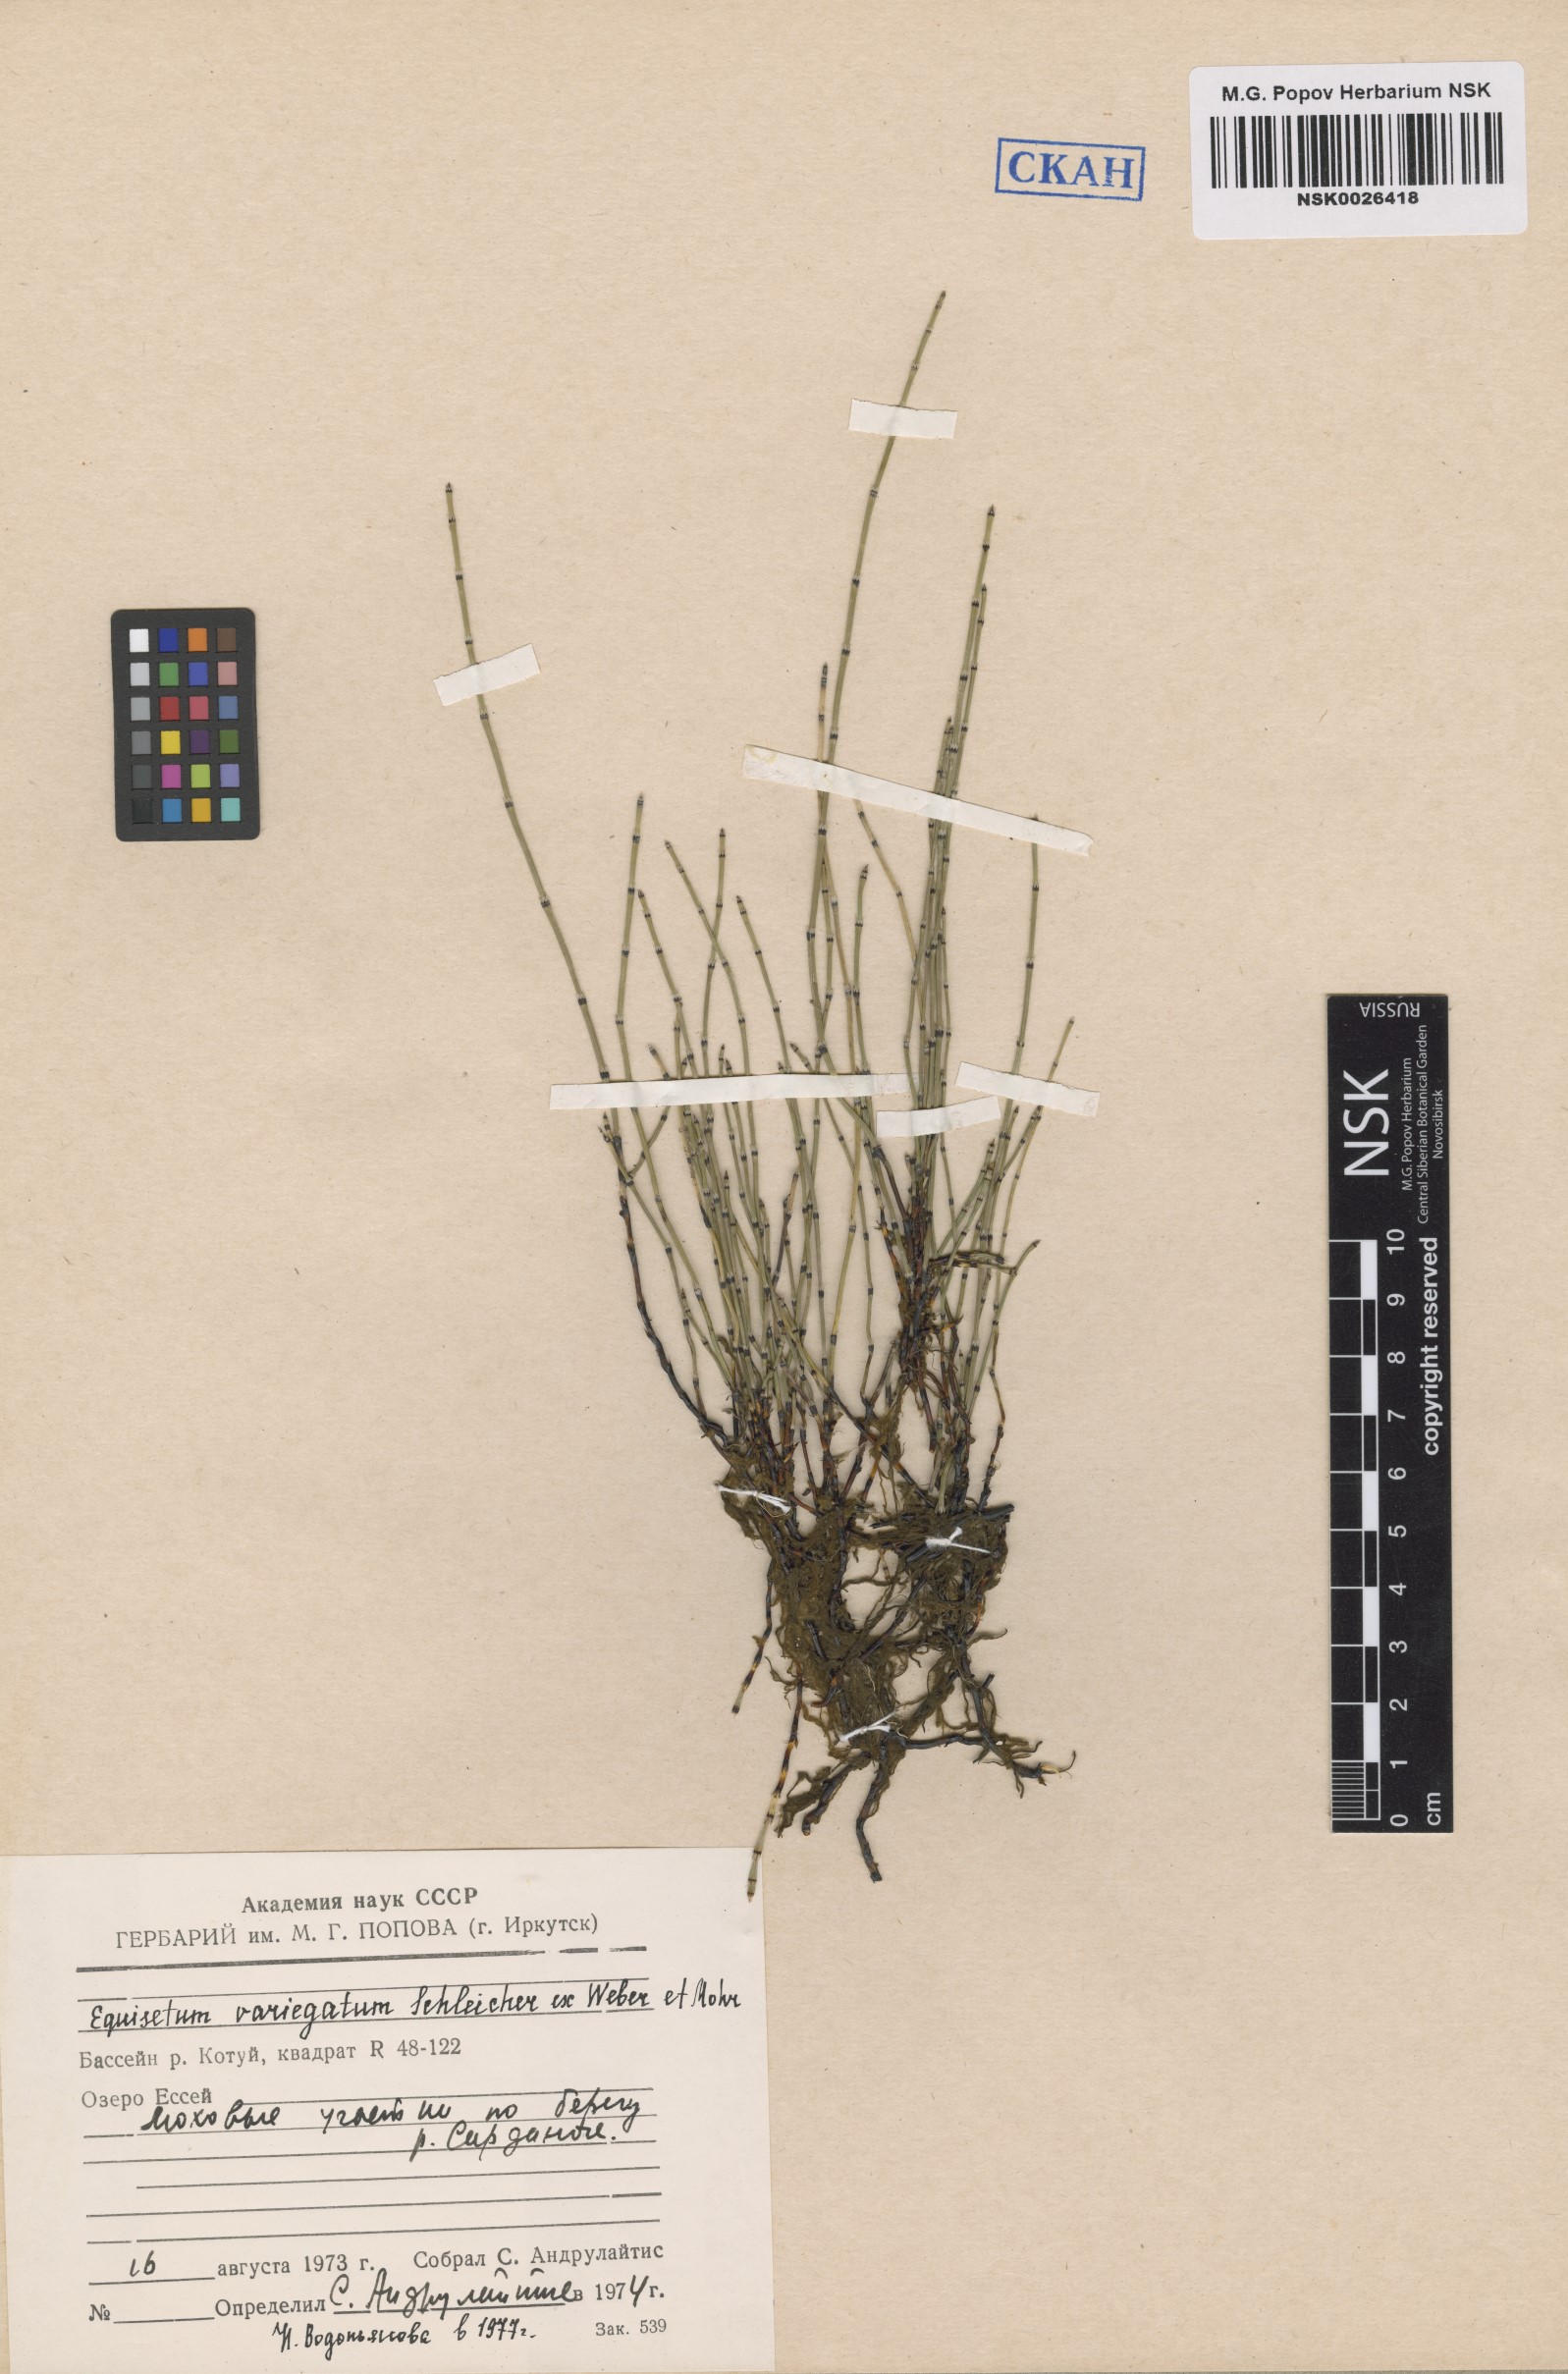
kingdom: Plantae
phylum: Tracheophyta
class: Polypodiopsida
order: Equisetales
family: Equisetaceae
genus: Equisetum
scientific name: Equisetum variegatum
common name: Variegated horsetail
